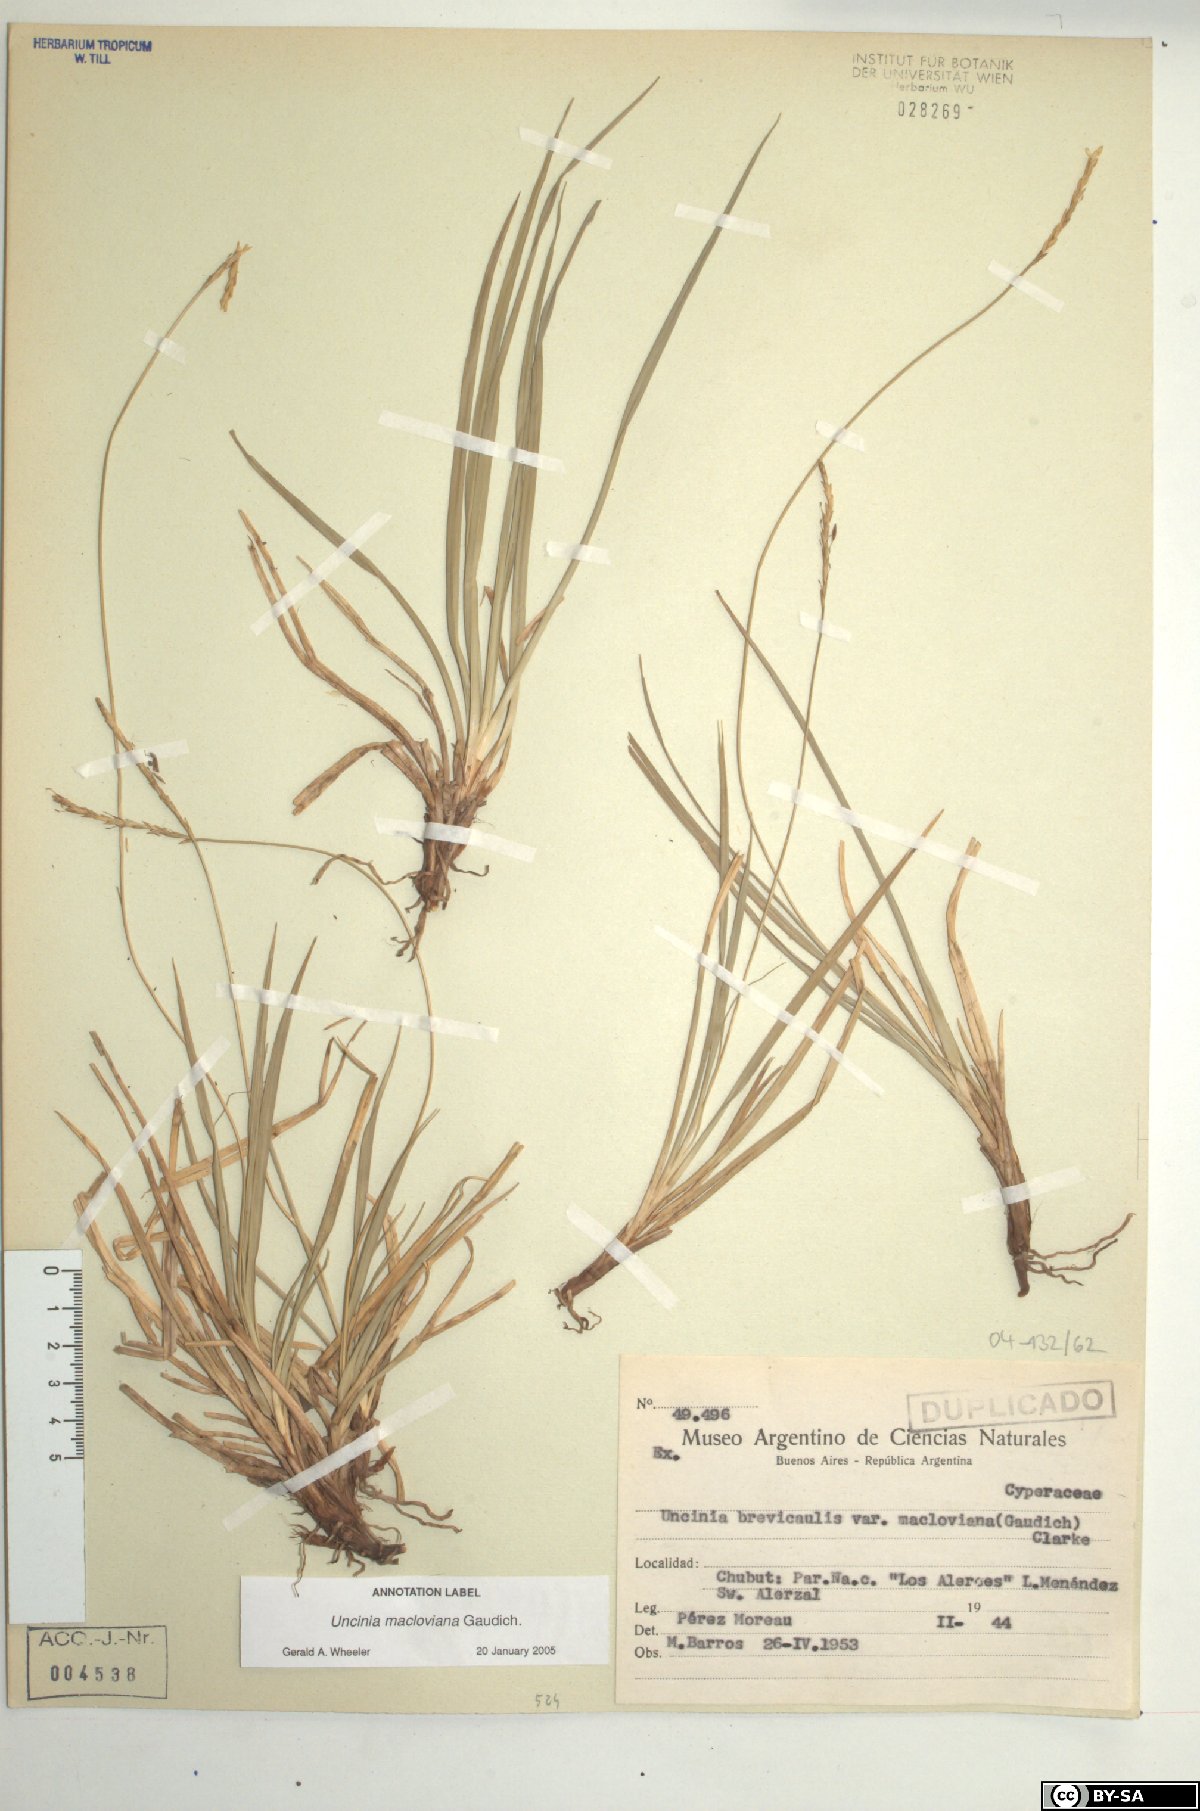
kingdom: Plantae
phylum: Tracheophyta
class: Liliopsida
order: Poales
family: Cyperaceae
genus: Carex
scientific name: Carex delacosta
